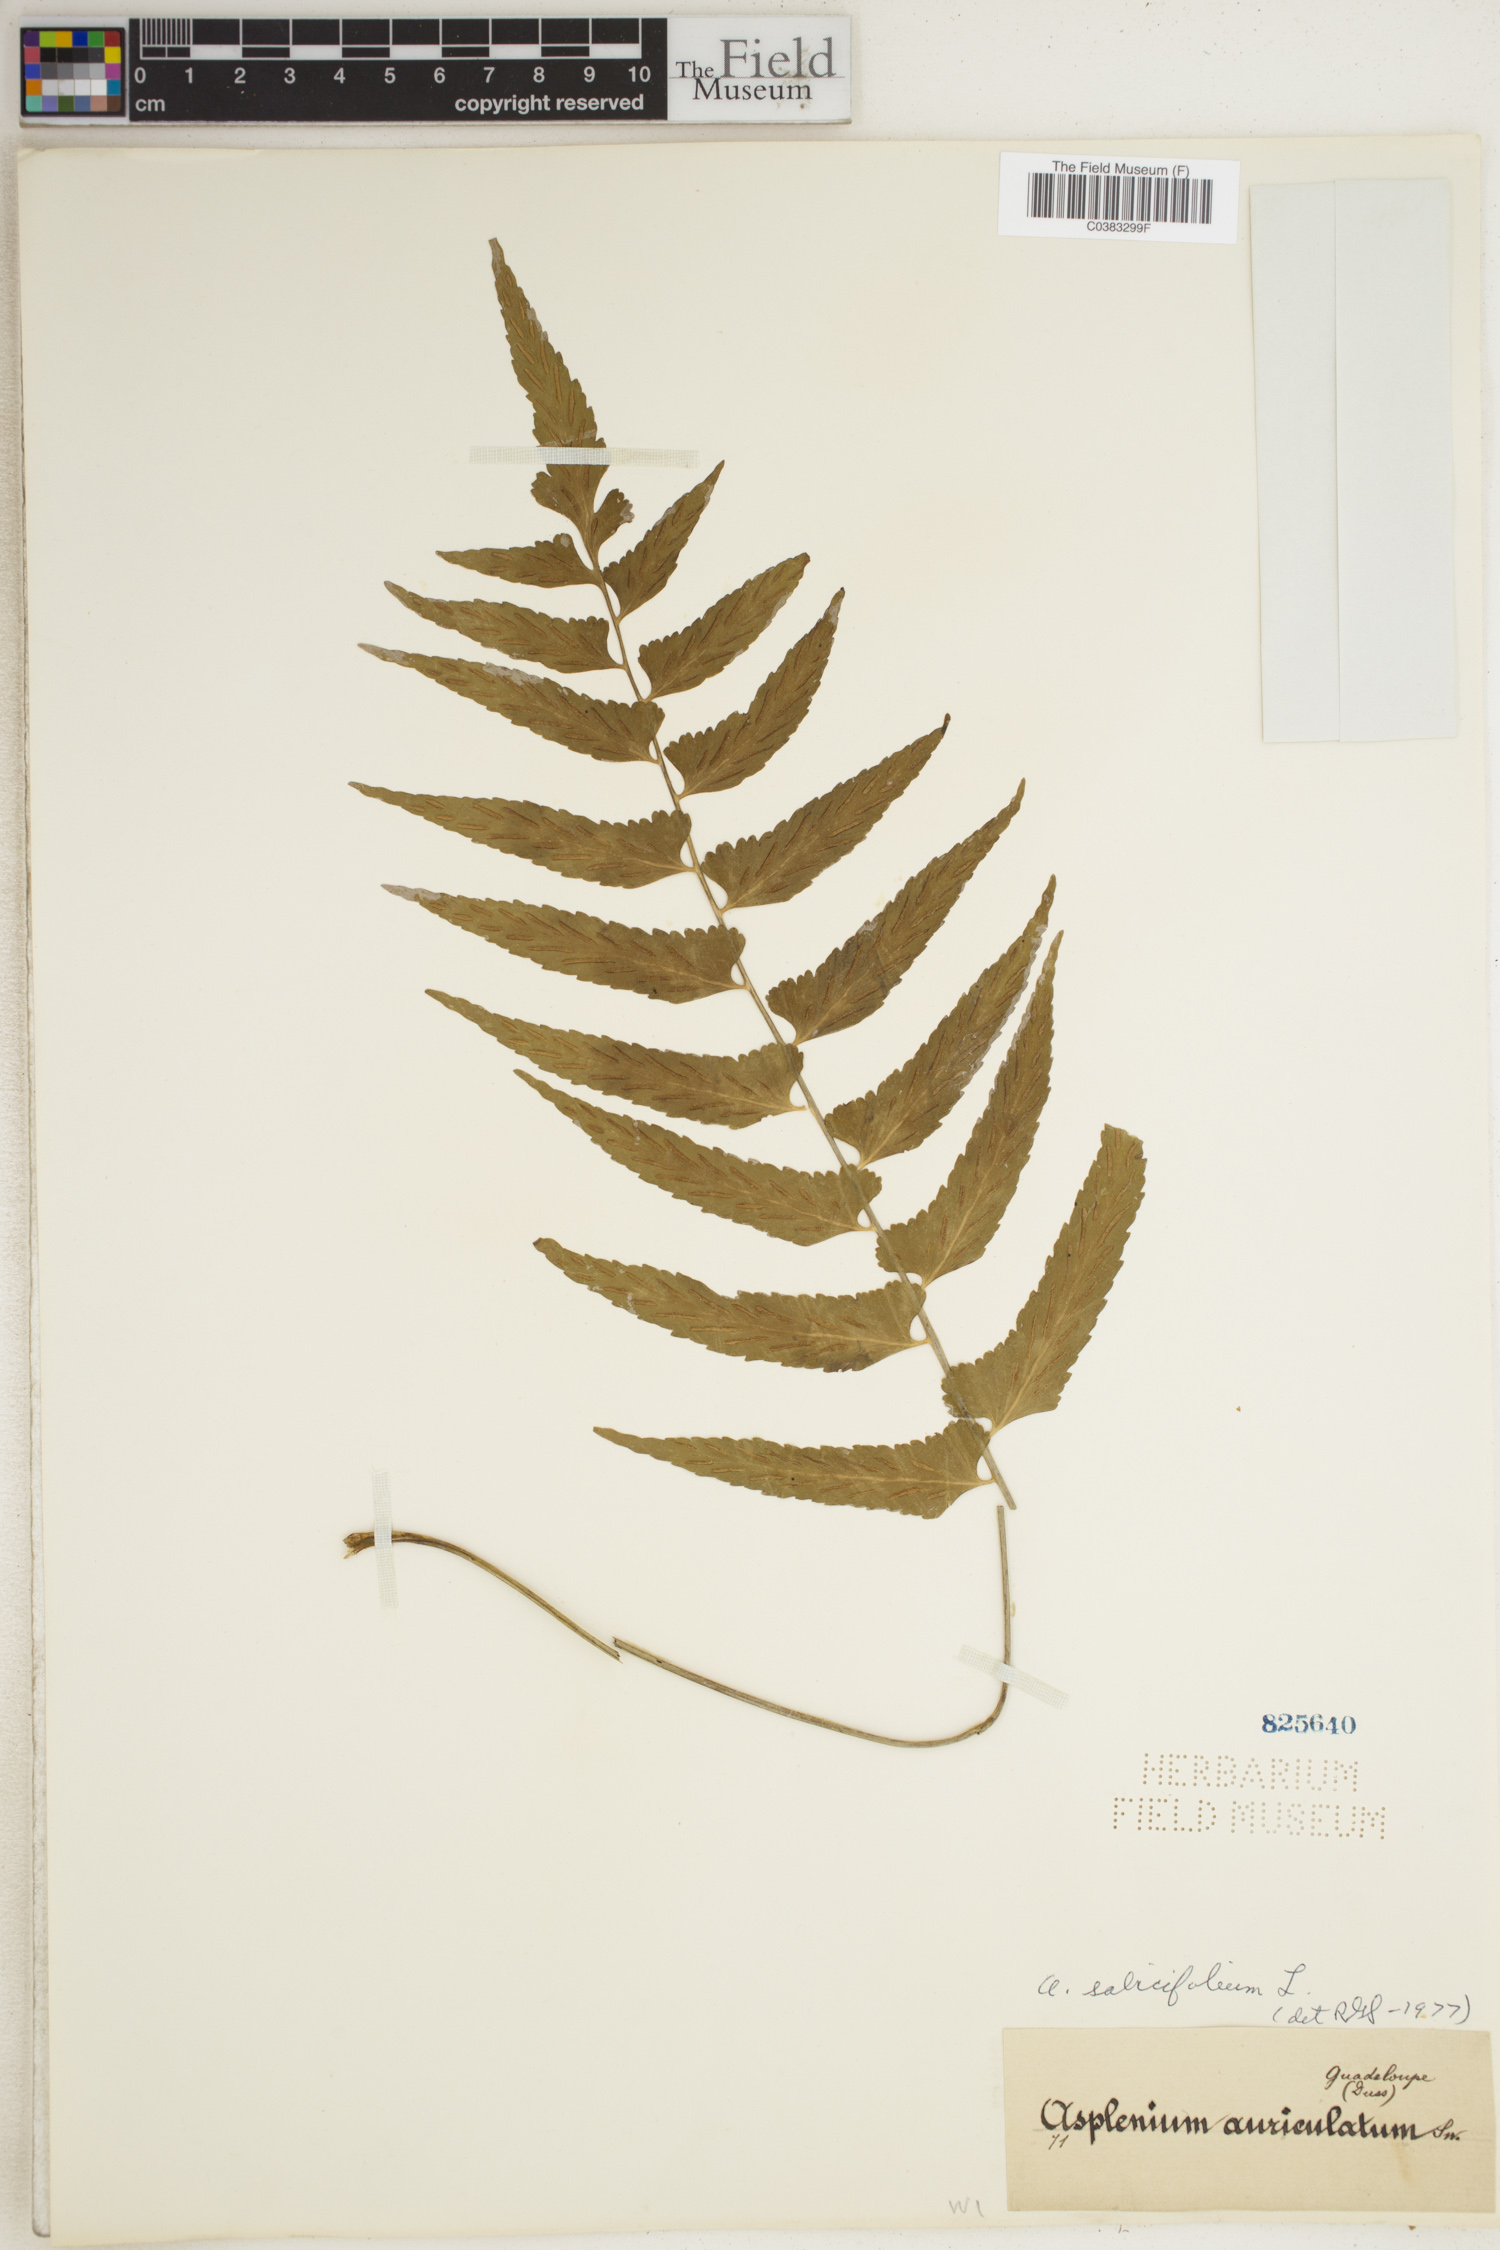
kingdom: Plantae
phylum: Tracheophyta
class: Polypodiopsida
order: Polypodiales
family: Aspleniaceae
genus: Asplenium
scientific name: Asplenium salicifolium
